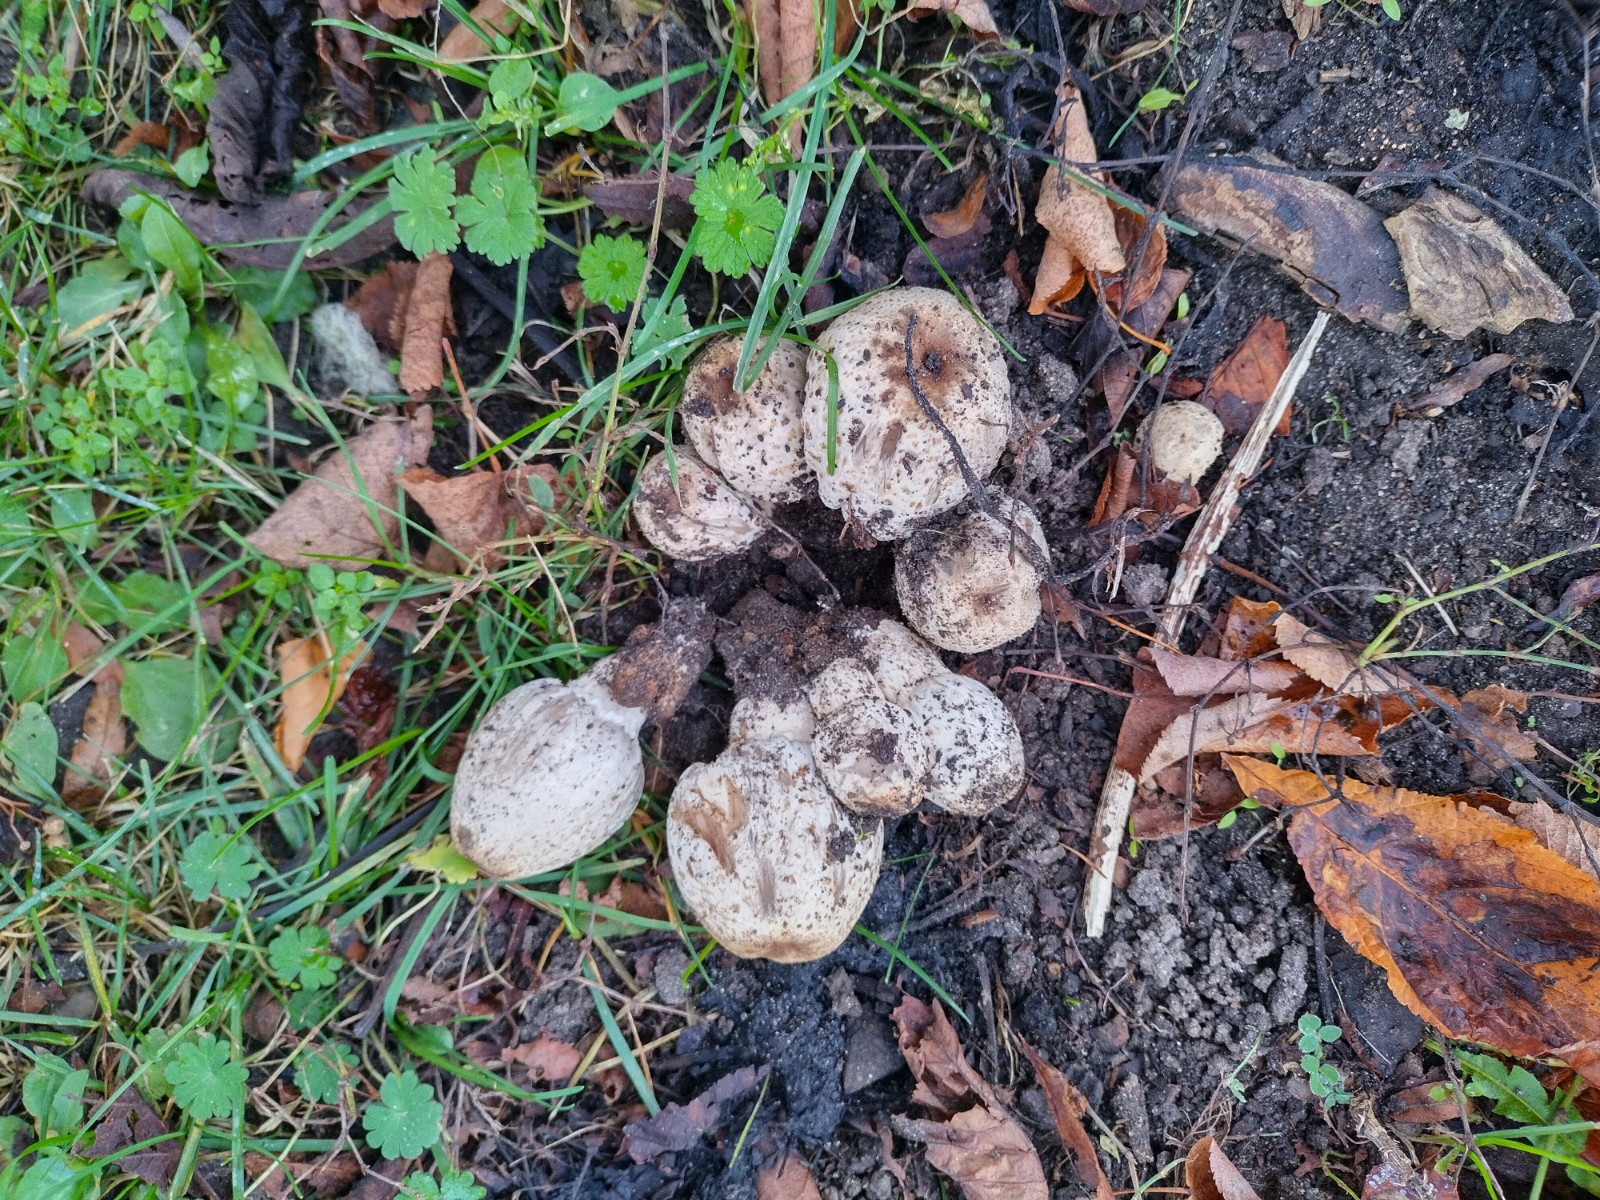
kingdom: Fungi
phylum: Basidiomycota
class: Agaricomycetes
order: Agaricales
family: Psathyrellaceae
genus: Coprinopsis
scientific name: Coprinopsis romagnesiana
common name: brunskællet blækhat
